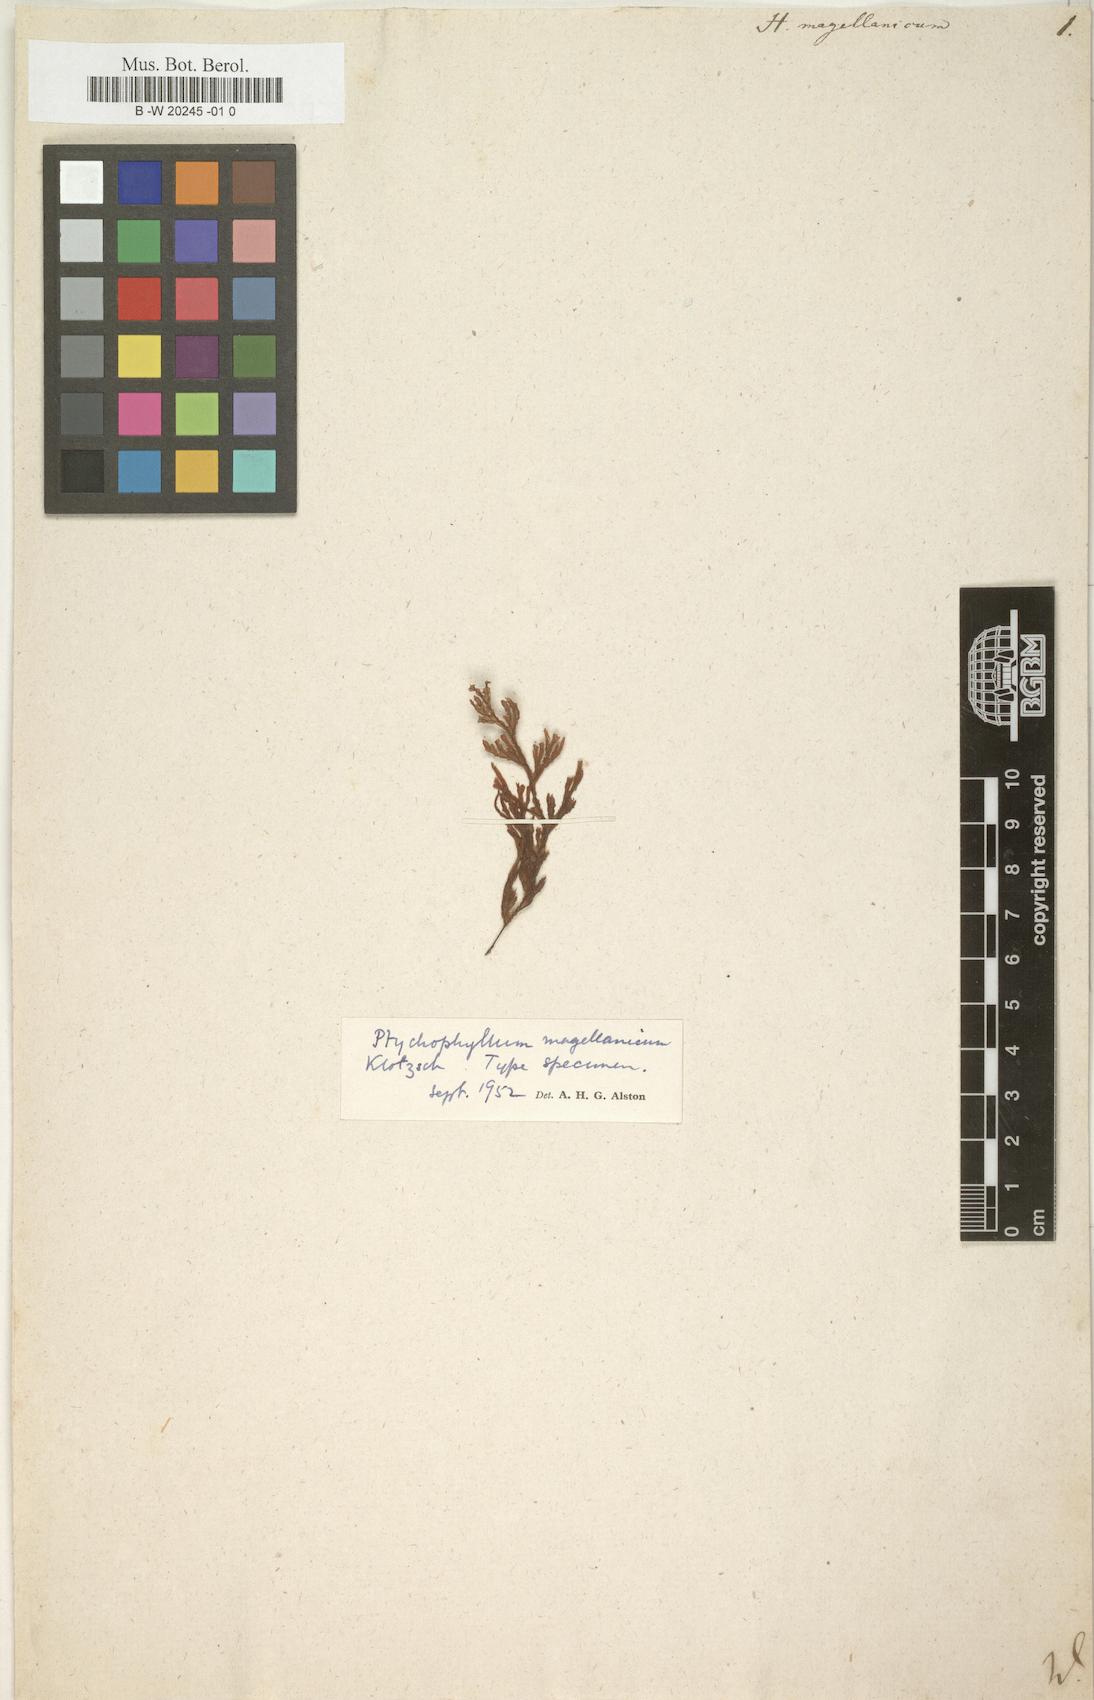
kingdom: Plantae
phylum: Tracheophyta
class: Polypodiopsida
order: Hymenophyllales
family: Hymenophyllaceae
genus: Hymenophyllum
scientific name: Hymenophyllum seselifolium
